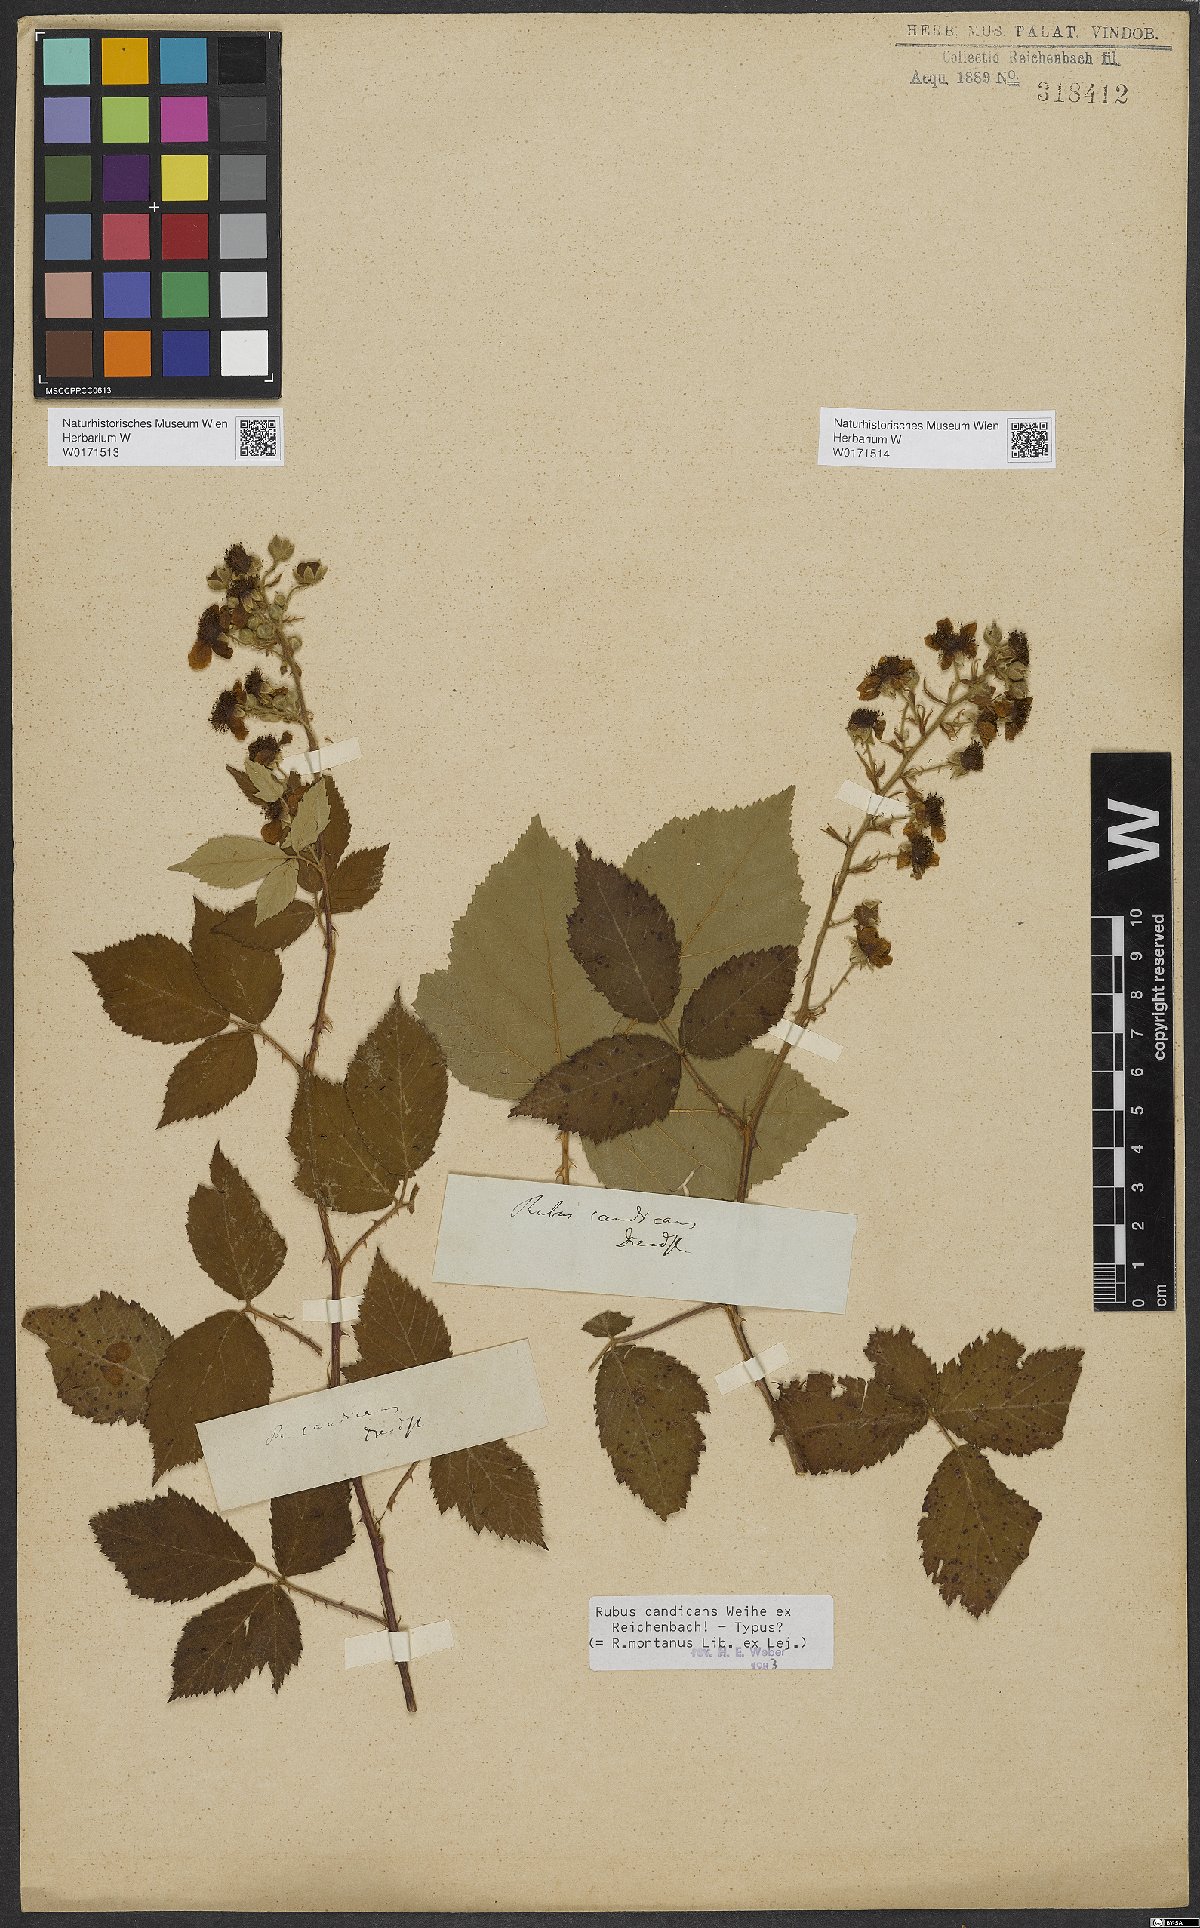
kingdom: Plantae
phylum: Tracheophyta
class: Magnoliopsida
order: Rosales
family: Rosaceae
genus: Rubus
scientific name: Rubus silesiacus
